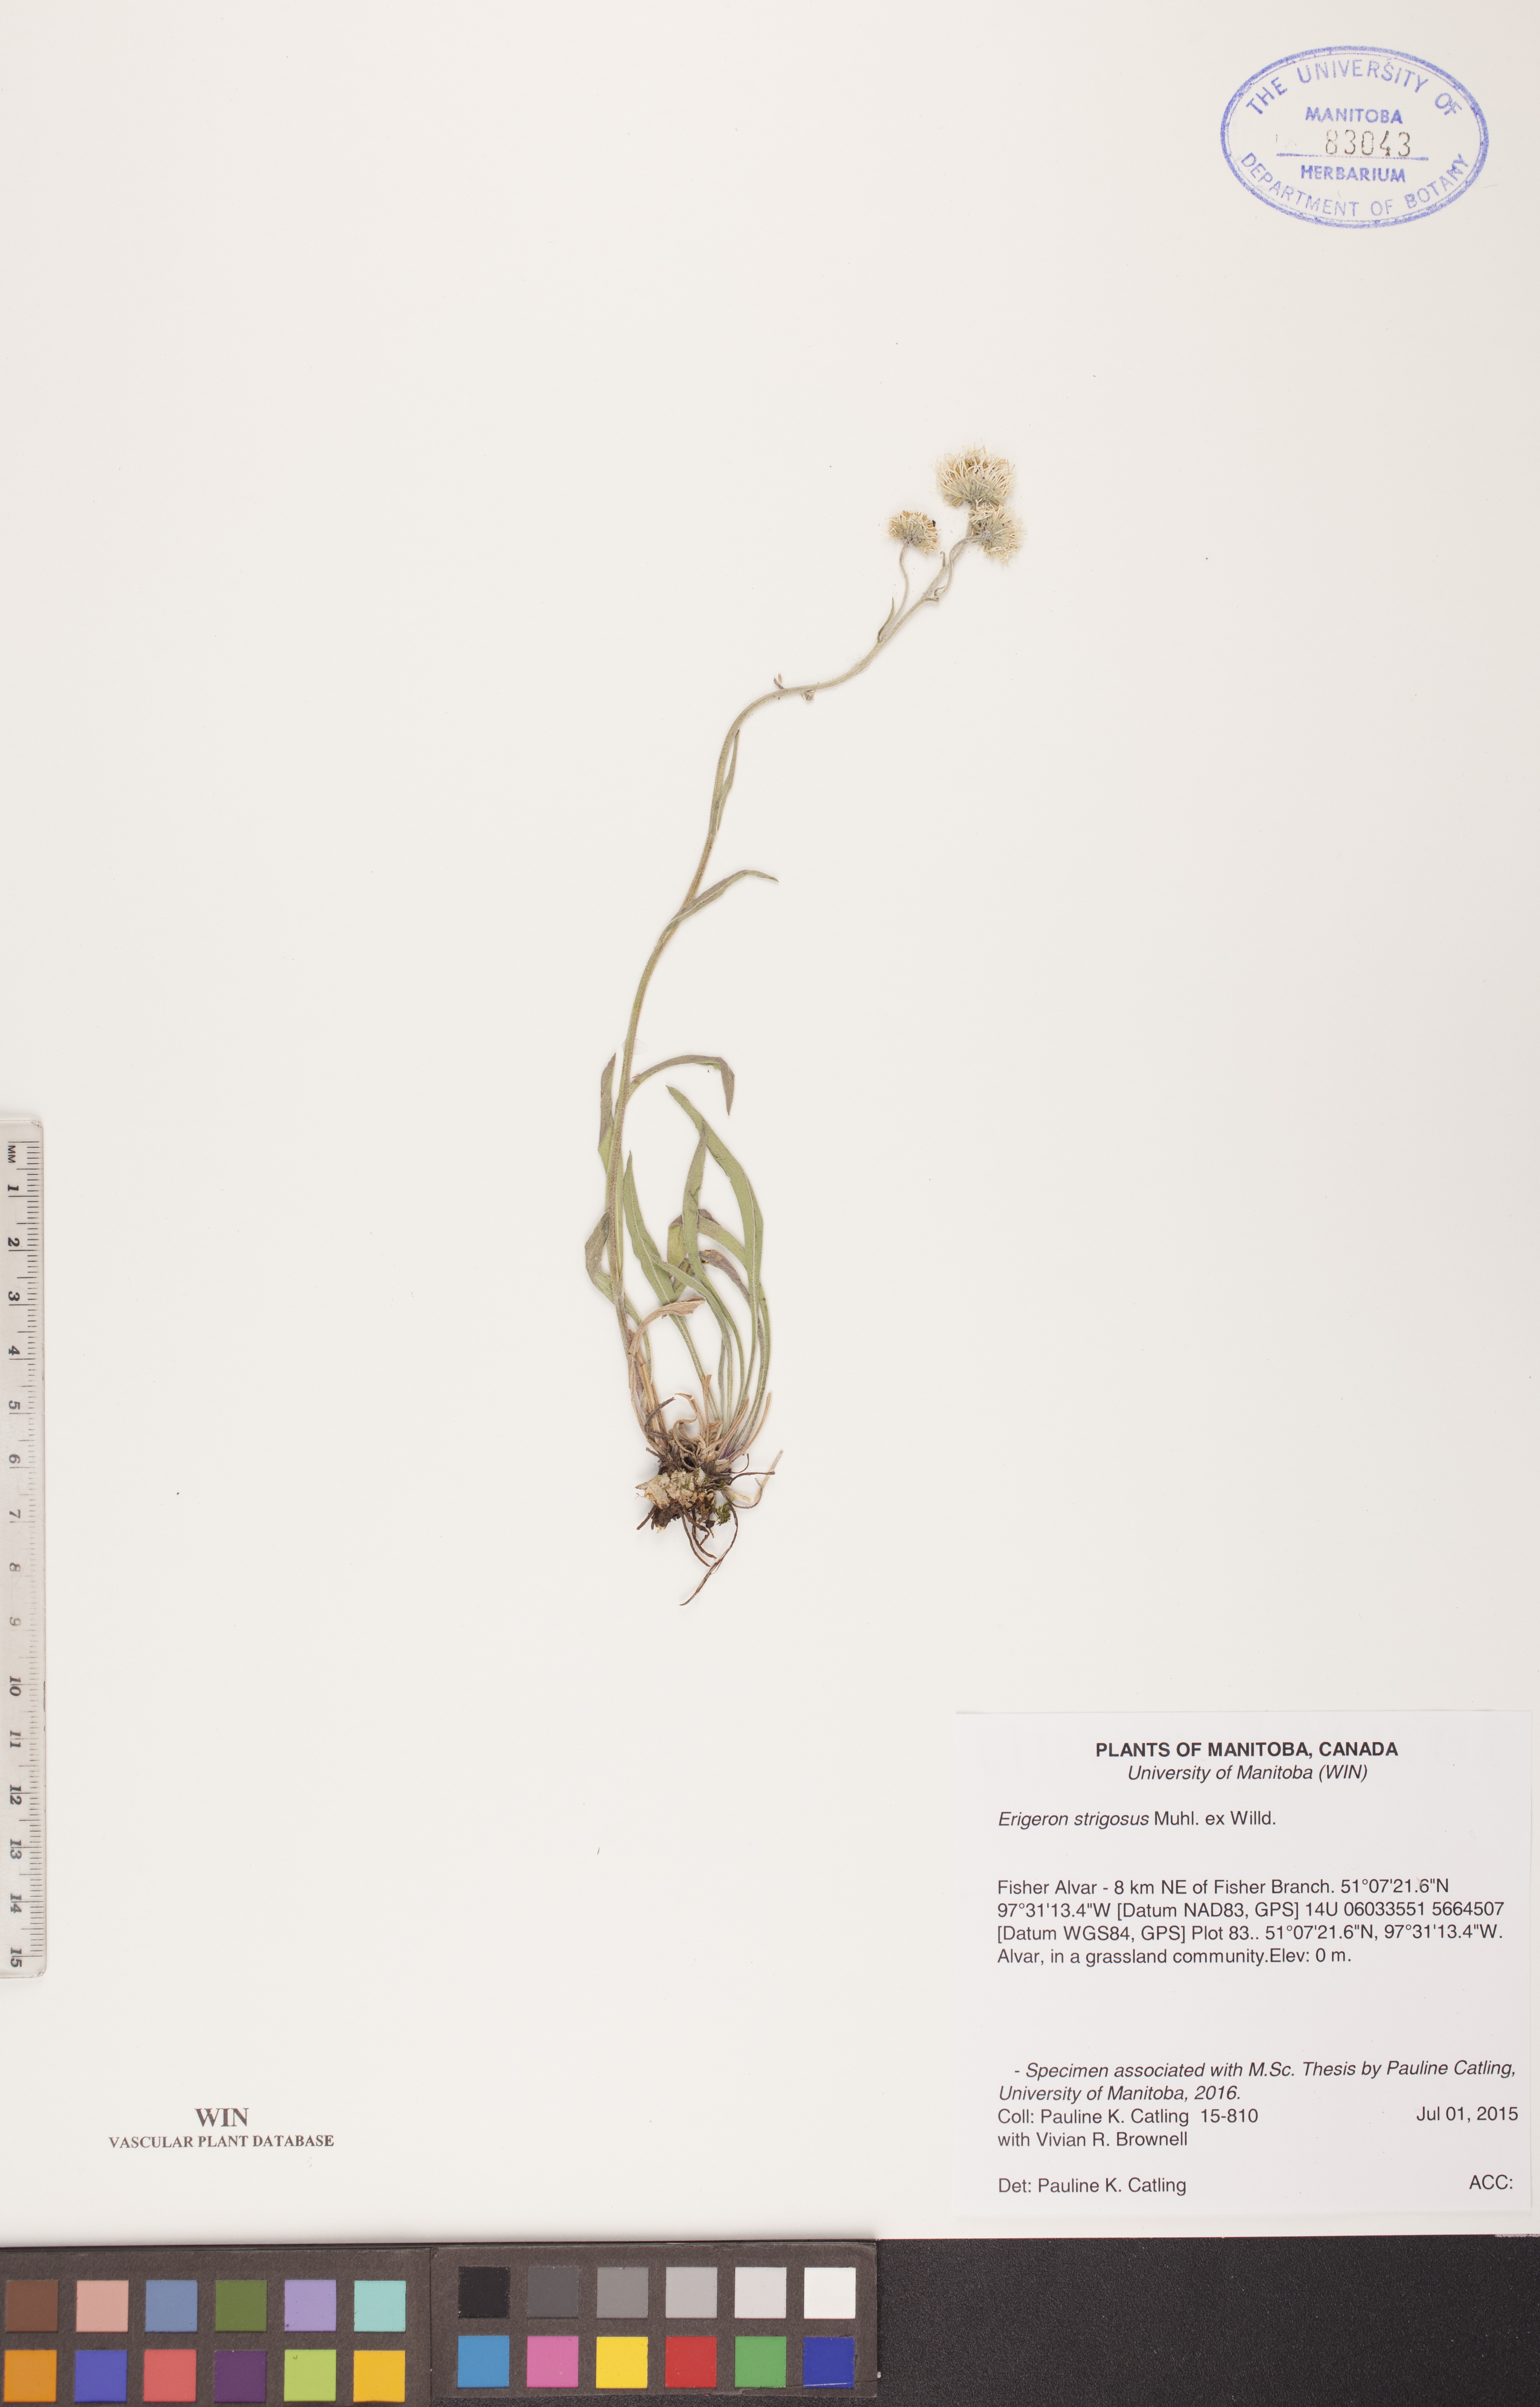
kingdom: Plantae
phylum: Tracheophyta
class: Magnoliopsida
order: Asterales
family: Asteraceae
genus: Erigeron
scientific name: Erigeron strigosus
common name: Common eastern fleabane
